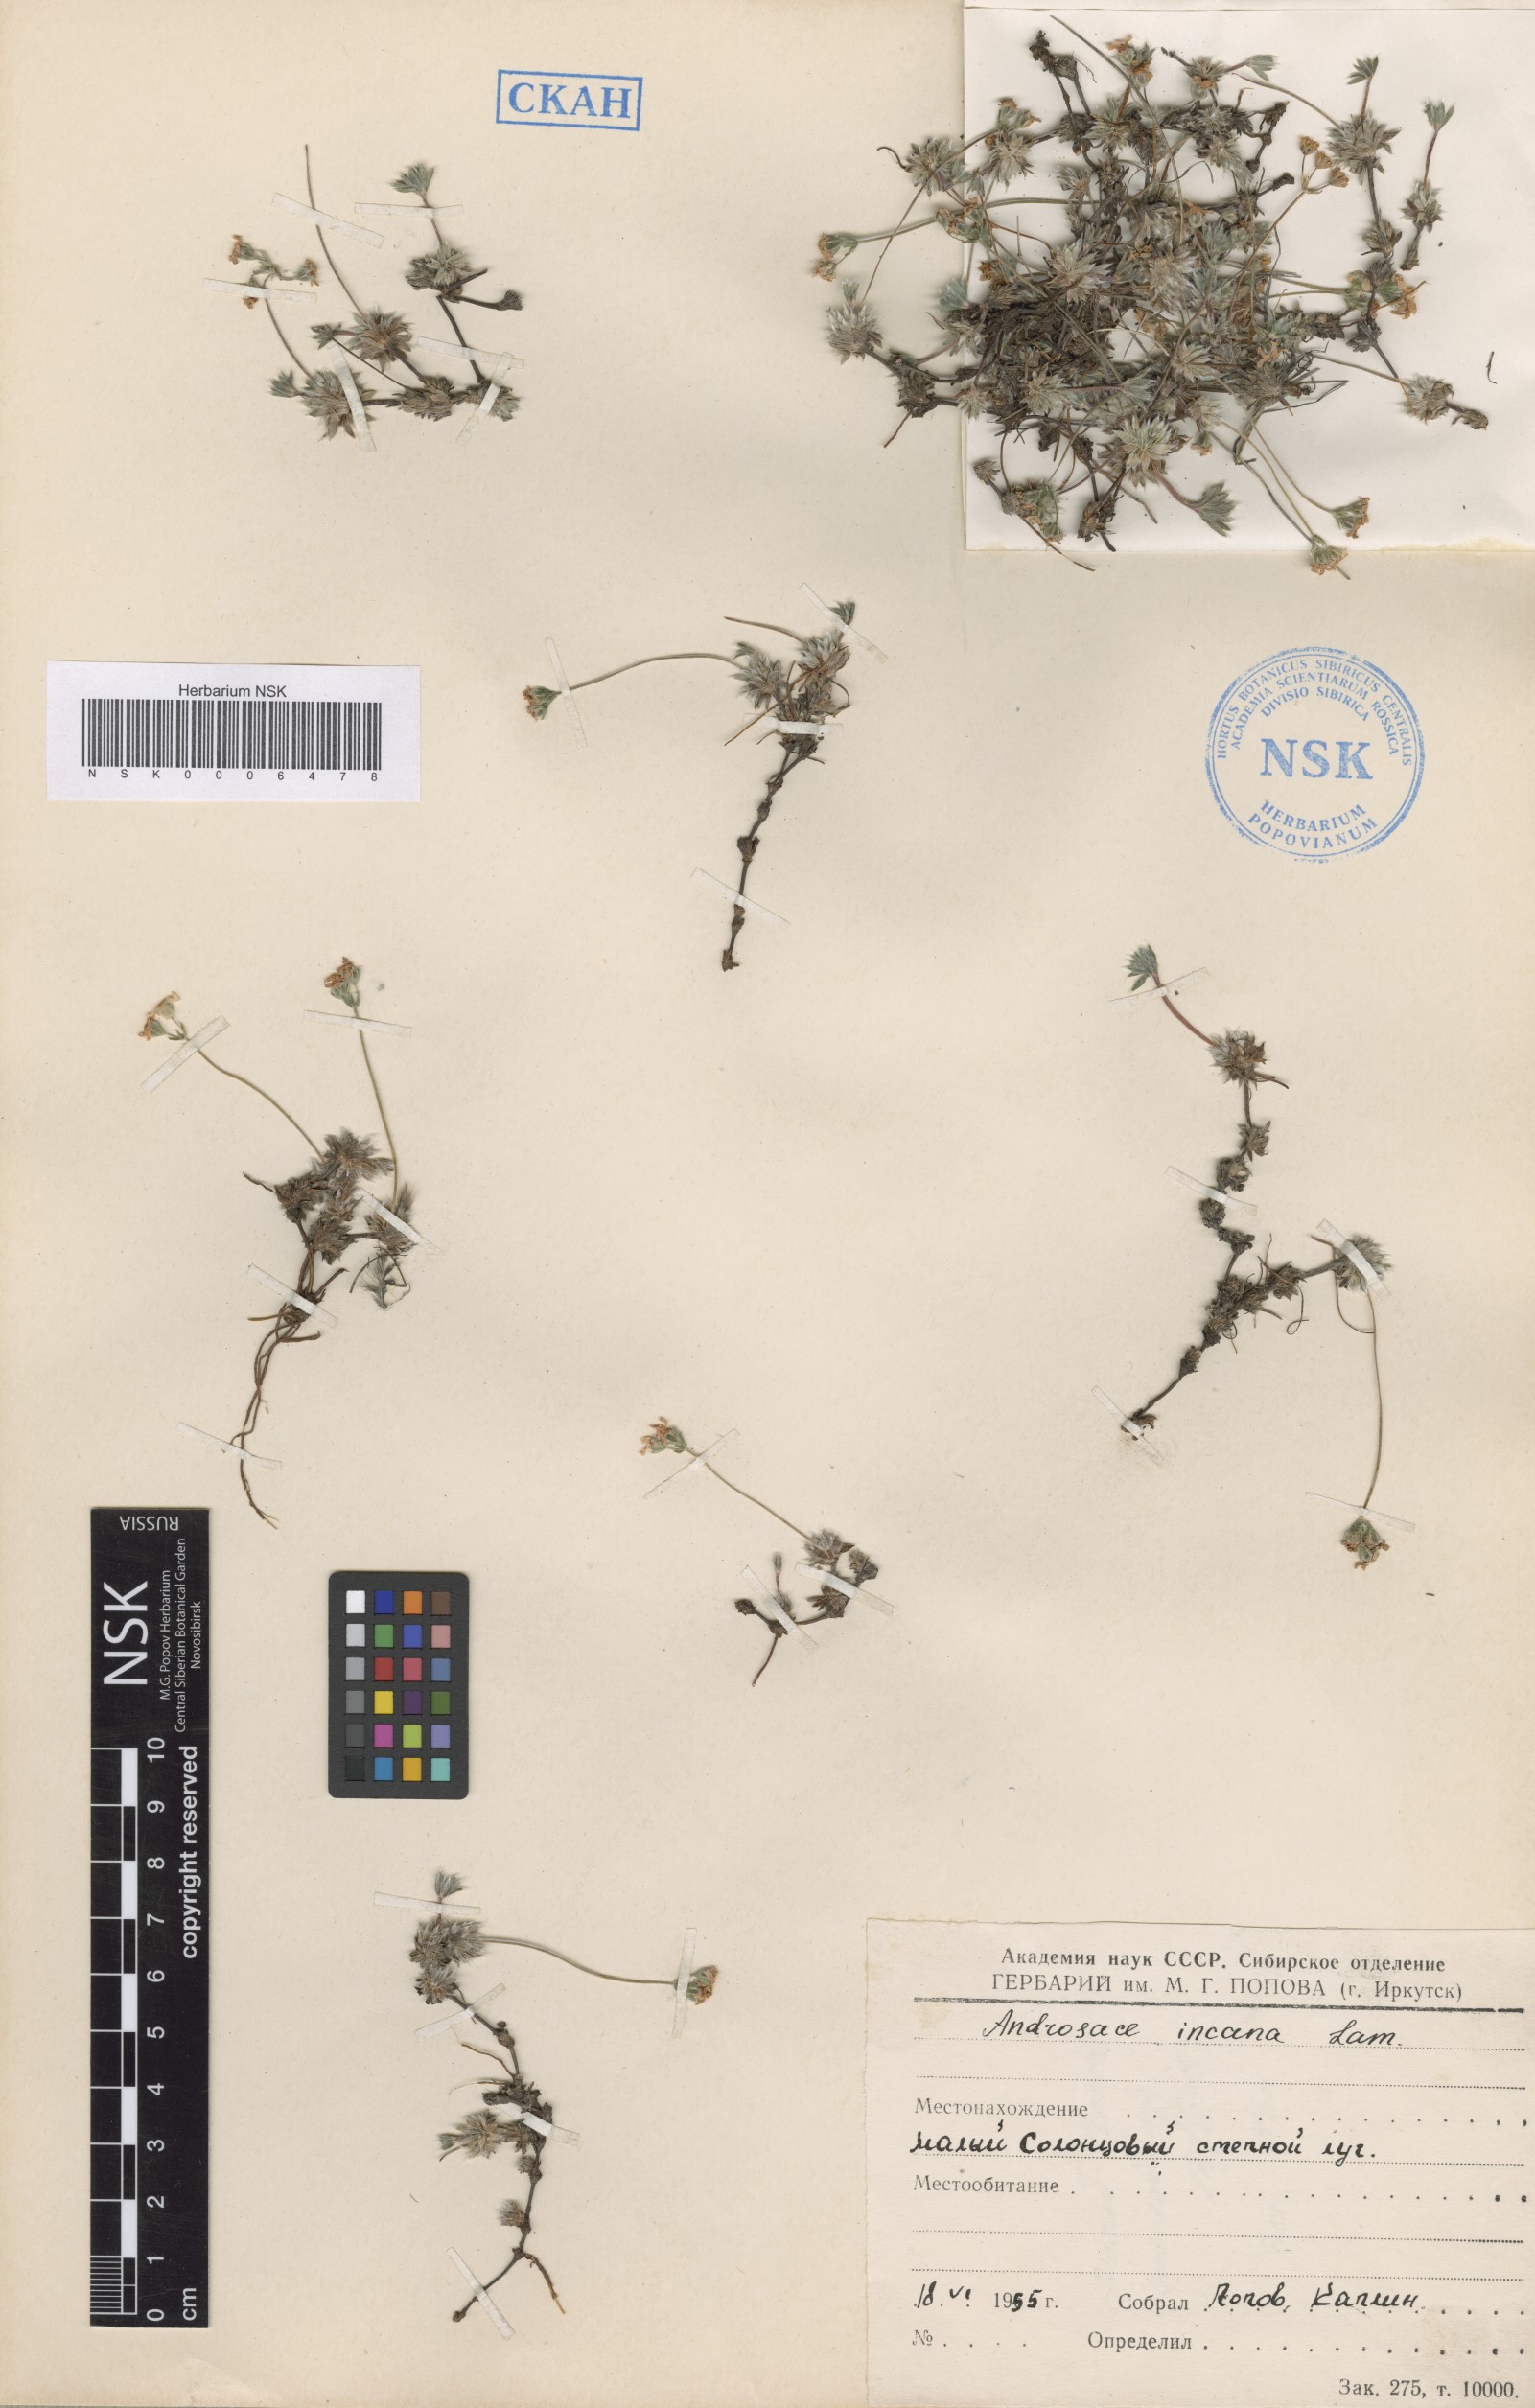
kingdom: Plantae
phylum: Tracheophyta
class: Magnoliopsida
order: Ericales
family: Primulaceae
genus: Androsace
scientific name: Androsace incana
